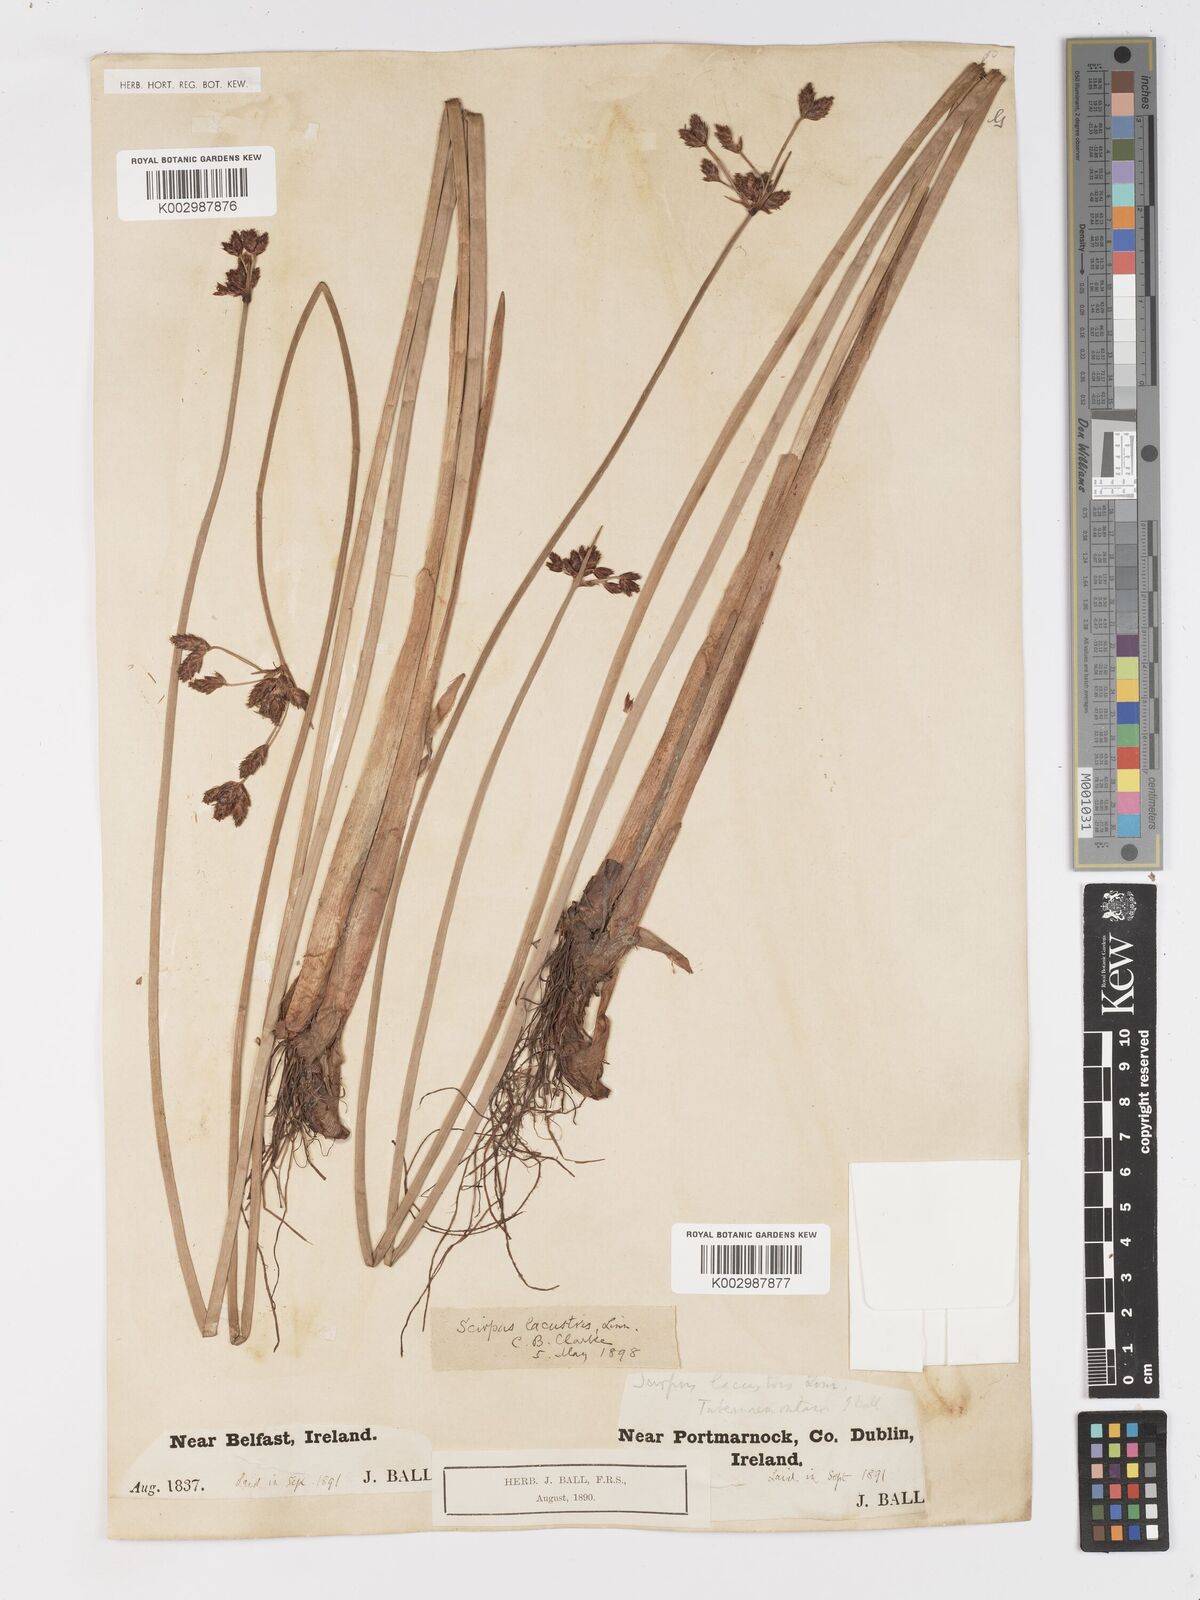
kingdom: Plantae
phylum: Tracheophyta
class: Liliopsida
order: Poales
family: Cyperaceae
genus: Schoenoplectus
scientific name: Schoenoplectus tabernaemontani
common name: Grey club-rush
